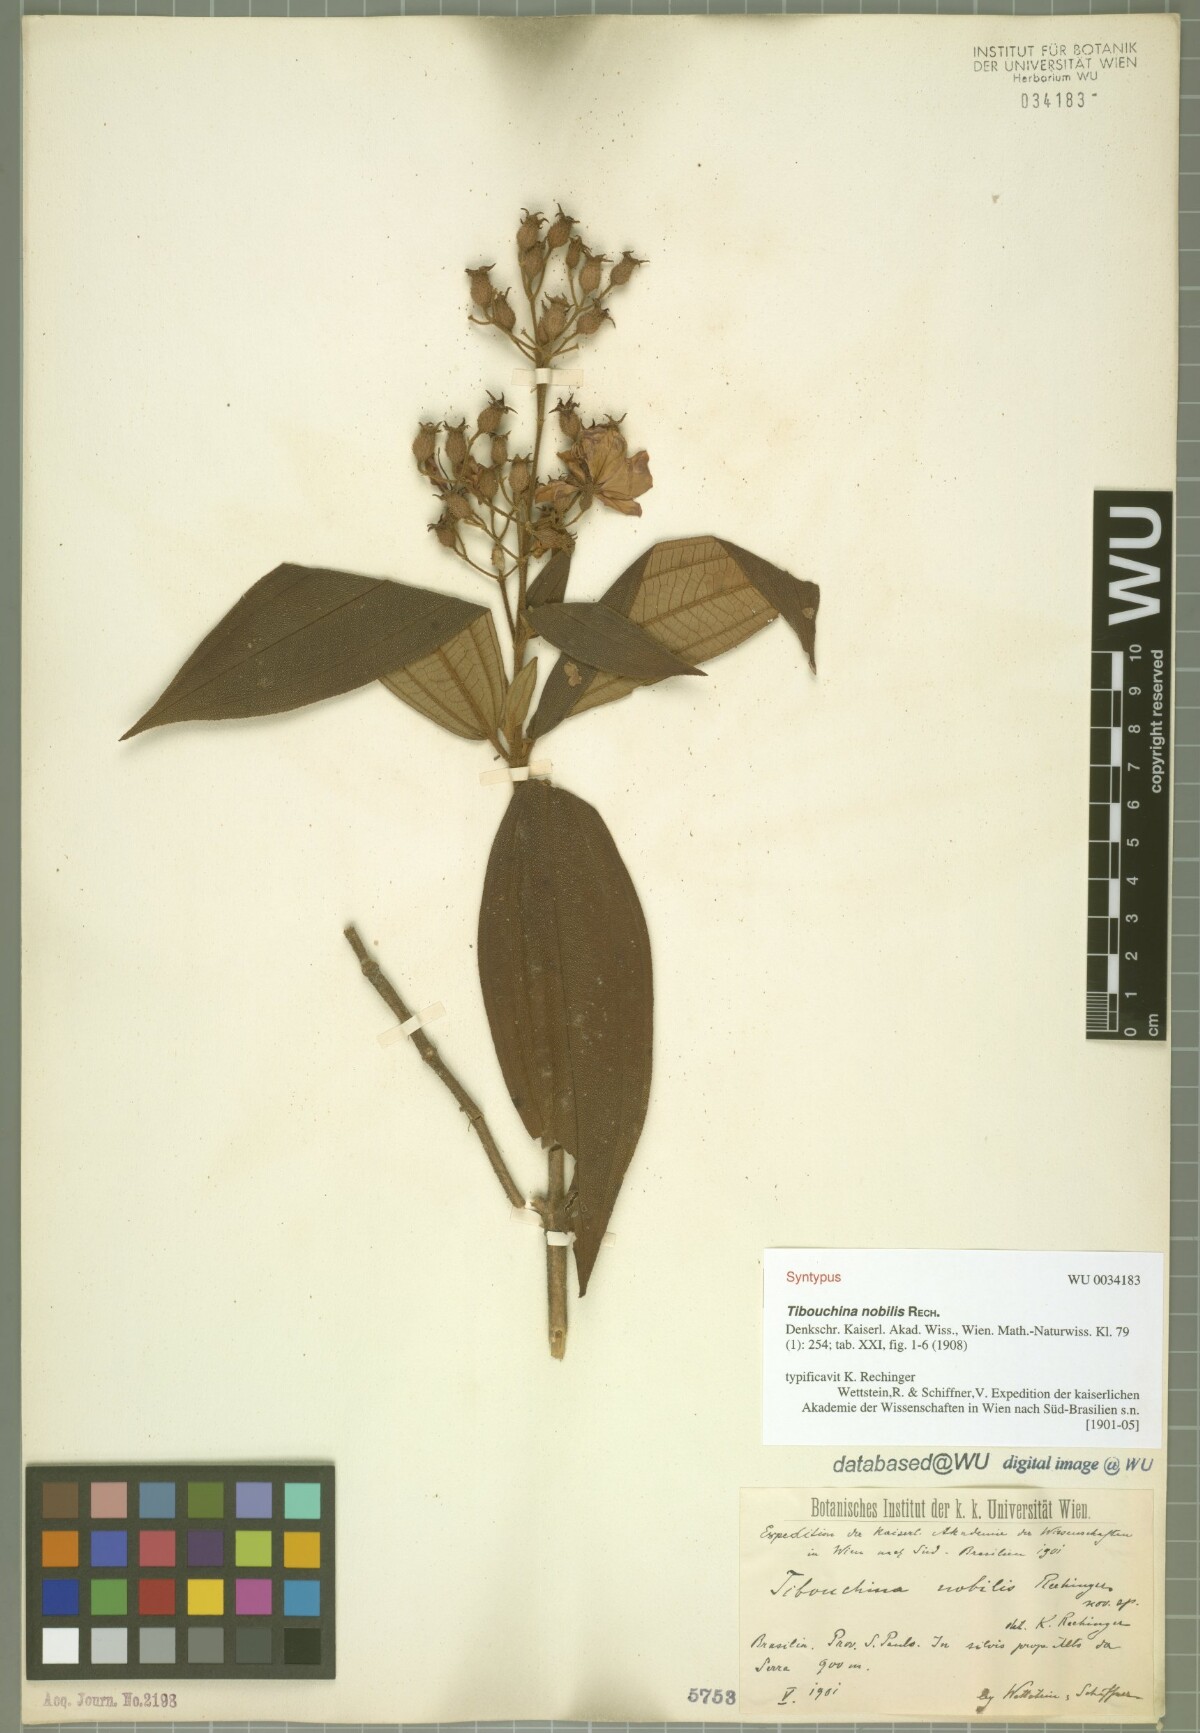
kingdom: Plantae
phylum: Tracheophyta
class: Magnoliopsida
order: Myrtales
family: Melastomataceae
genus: Pleroma
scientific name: Pleroma scaberrimum
